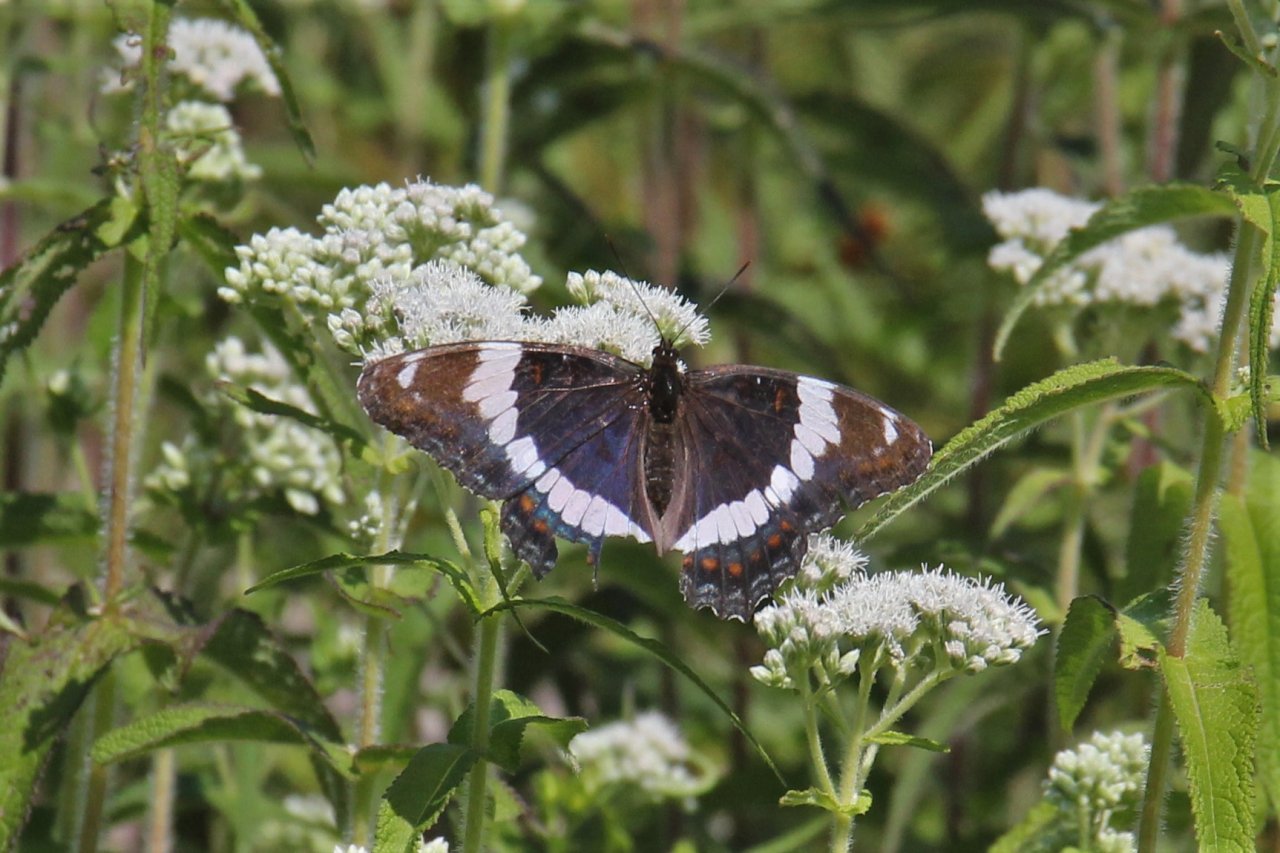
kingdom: Animalia
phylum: Arthropoda
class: Insecta
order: Lepidoptera
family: Nymphalidae
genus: Limenitis
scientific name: Limenitis arthemis
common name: Red-spotted Admiral
